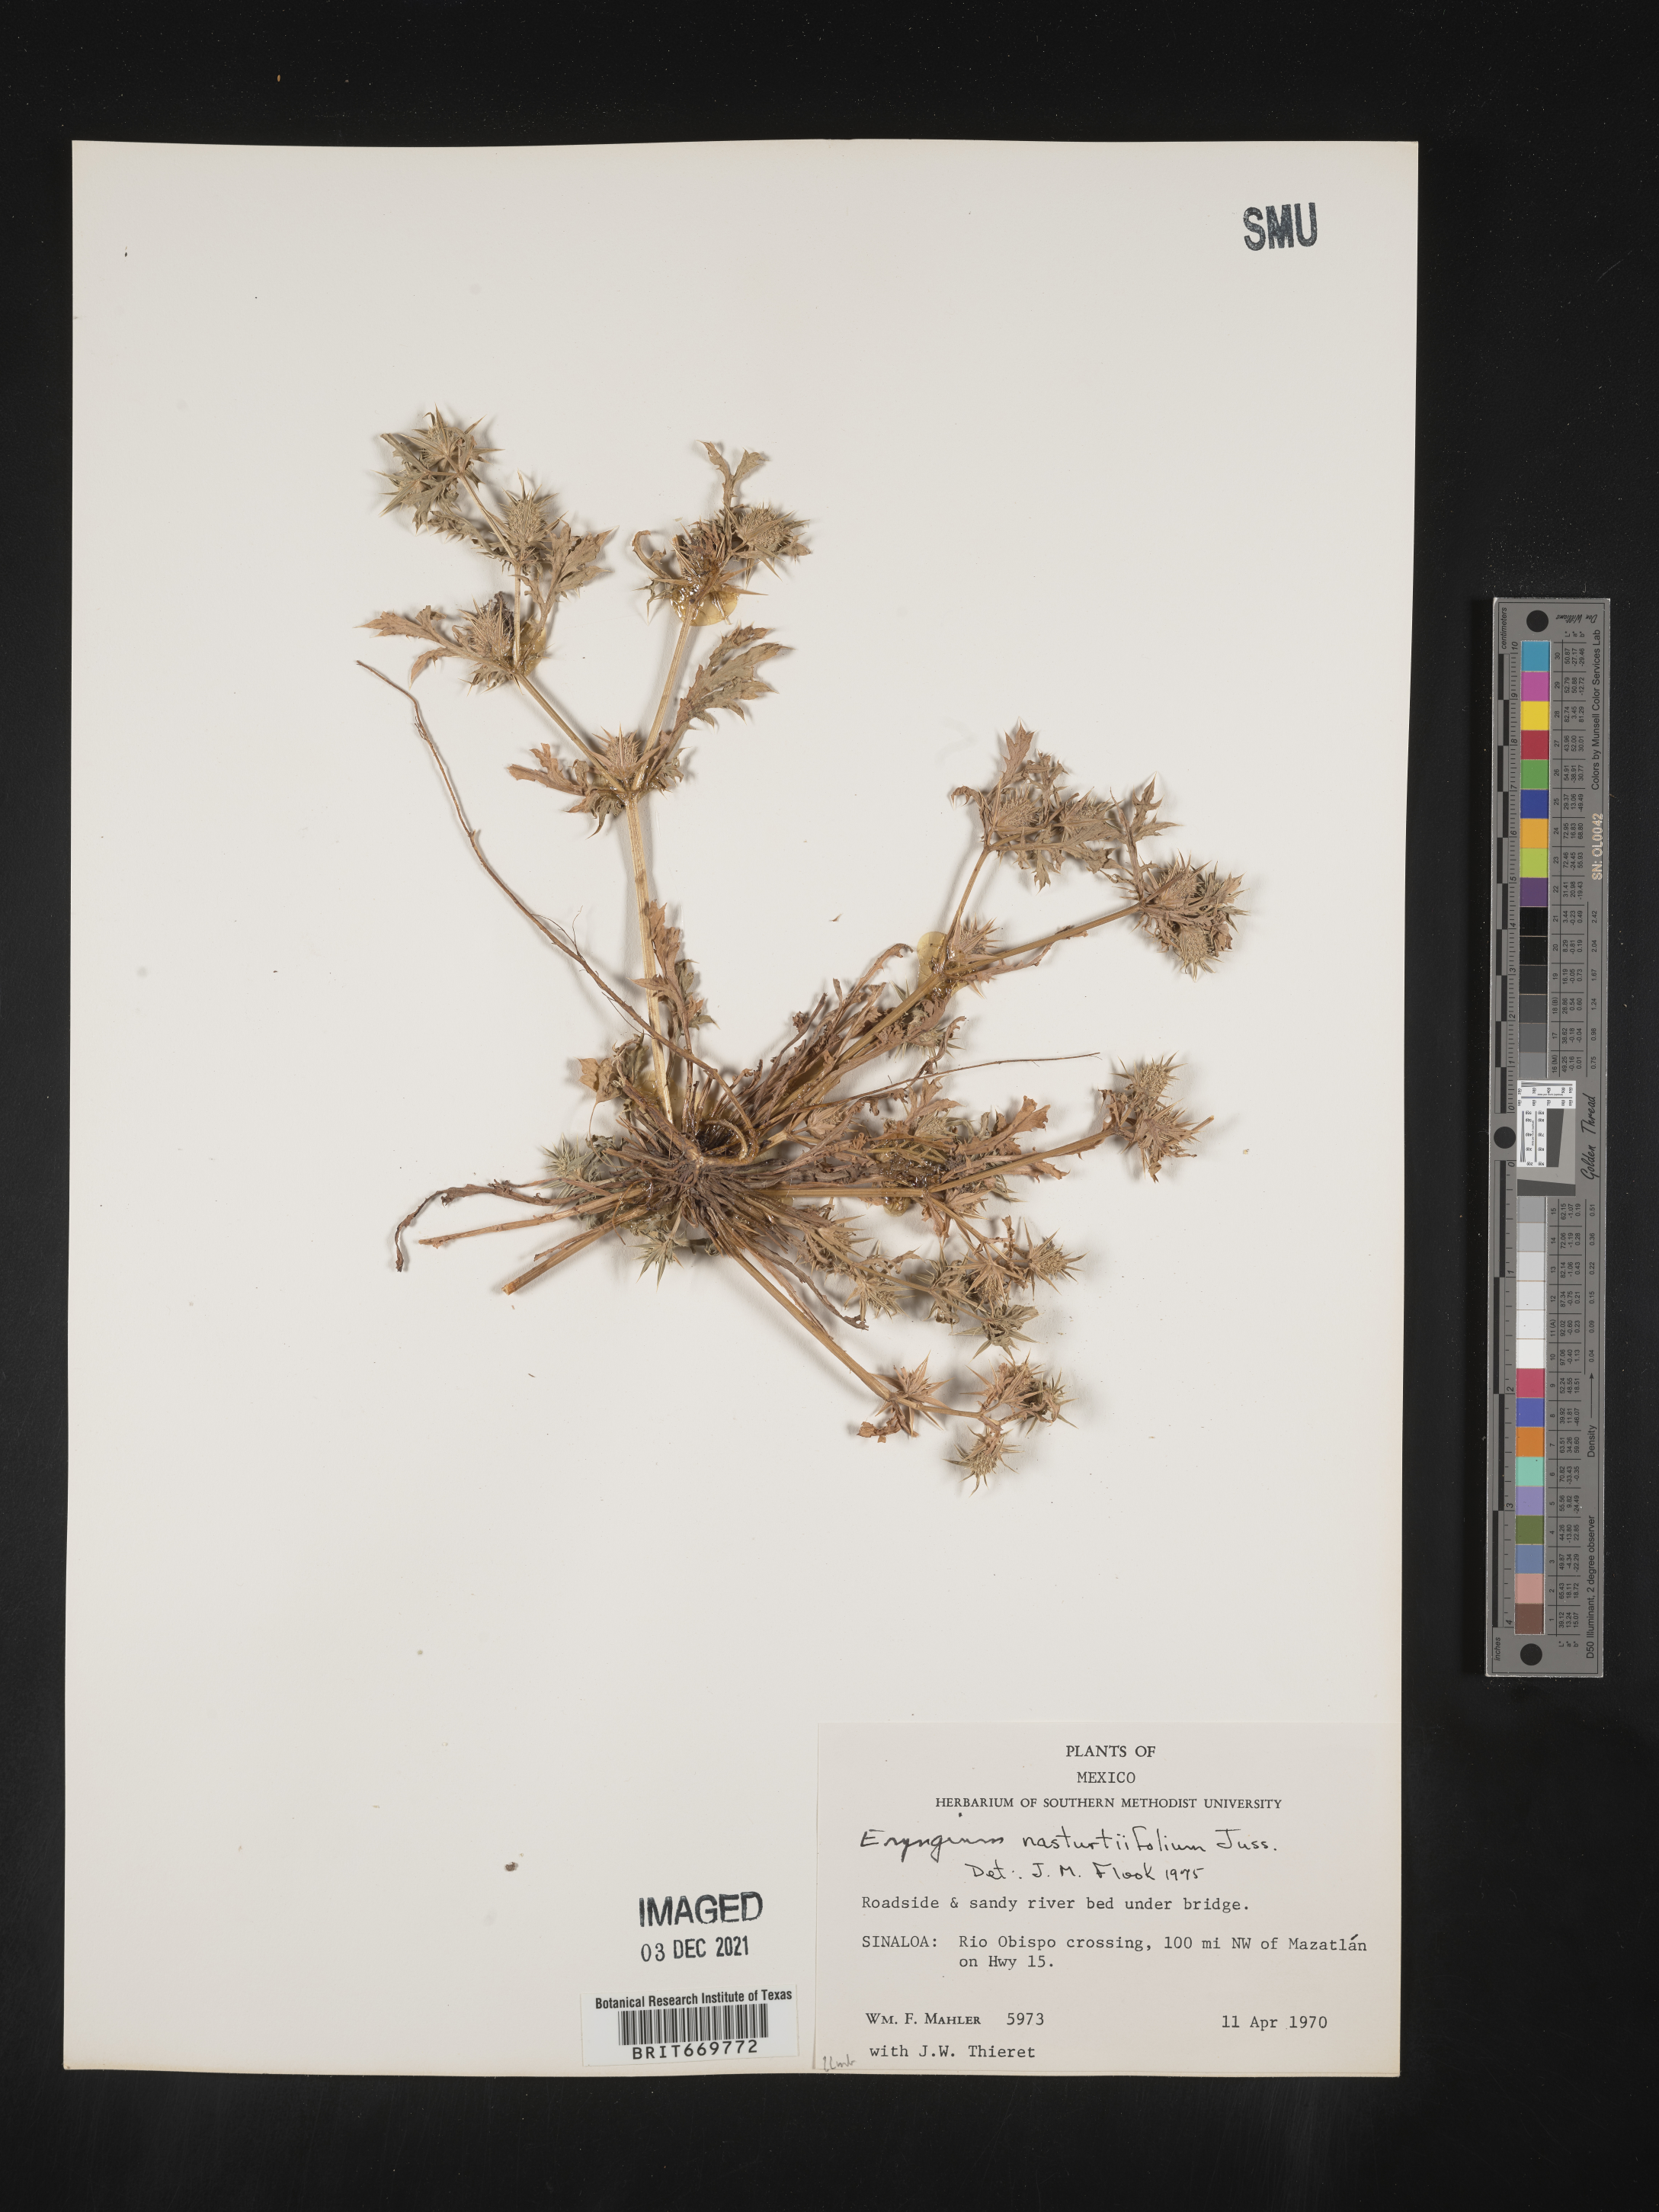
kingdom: Plantae
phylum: Tracheophyta
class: Magnoliopsida
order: Apiales
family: Apiaceae
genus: Eryngium
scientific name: Eryngium
